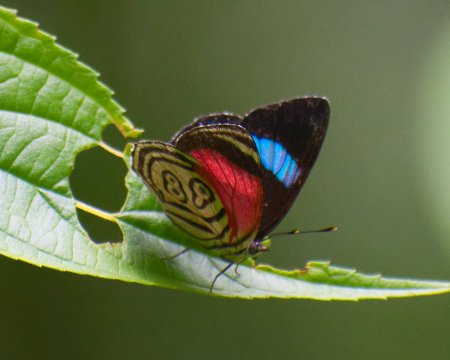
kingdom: Animalia
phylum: Arthropoda
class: Insecta
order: Lepidoptera
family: Nymphalidae
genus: Diaethria
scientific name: Diaethria clymena
